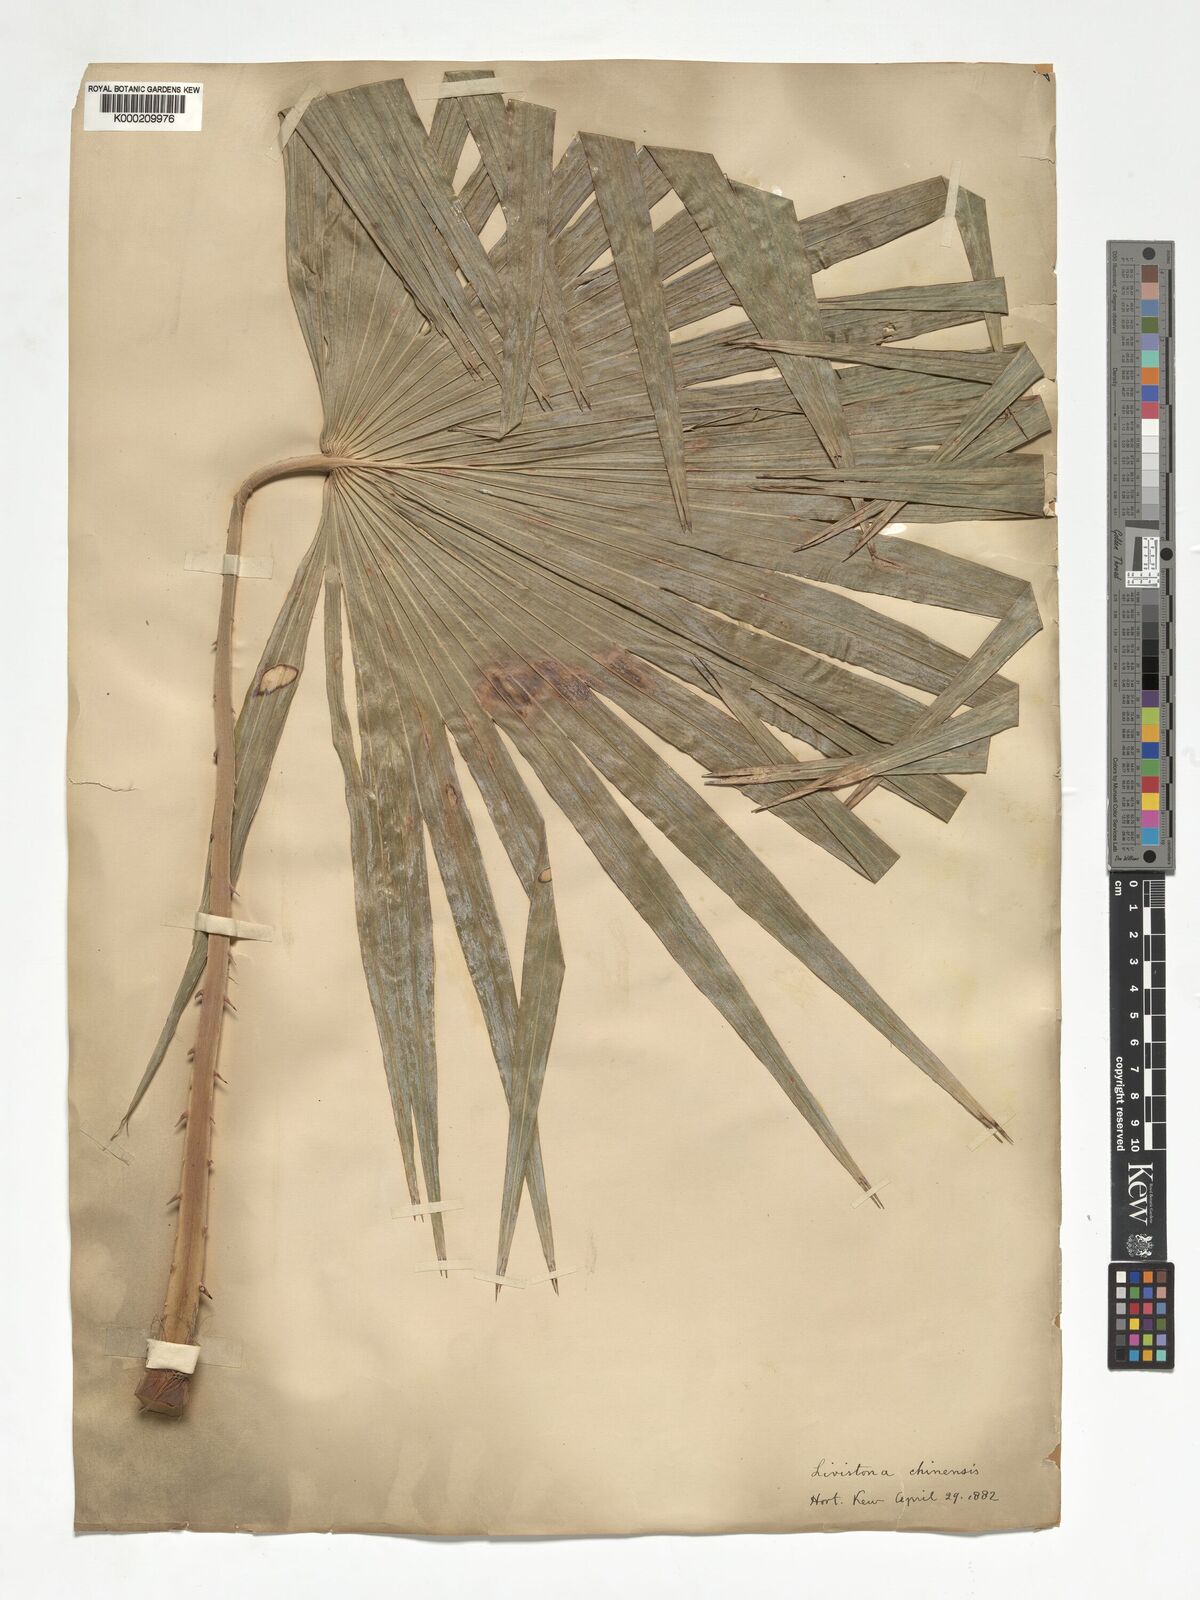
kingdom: Plantae
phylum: Tracheophyta
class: Liliopsida
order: Arecales
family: Arecaceae
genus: Livistona
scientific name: Livistona chinensis
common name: Fountain palm
